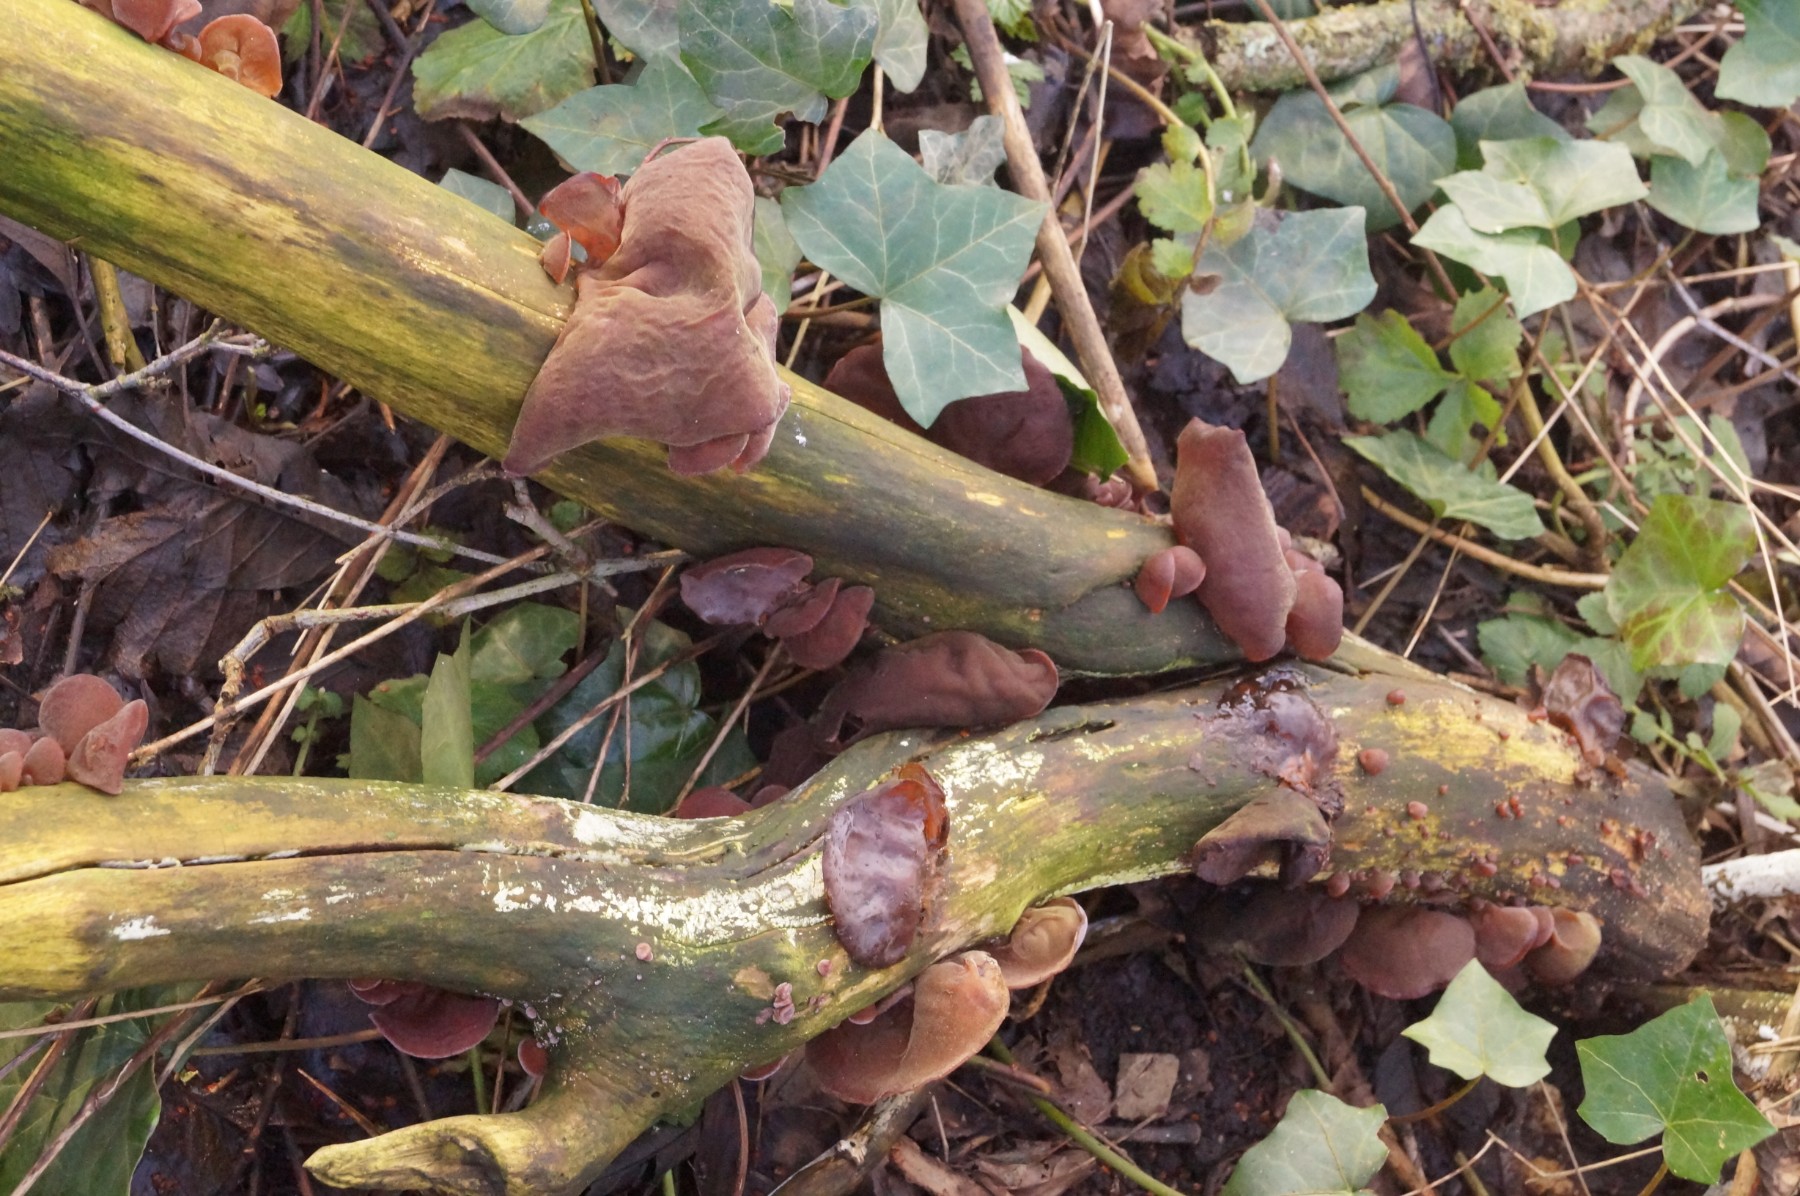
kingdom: Fungi
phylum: Basidiomycota
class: Agaricomycetes
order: Auriculariales
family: Auriculariaceae
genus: Auricularia
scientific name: Auricularia auricula-judae
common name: almindelig judasøre
